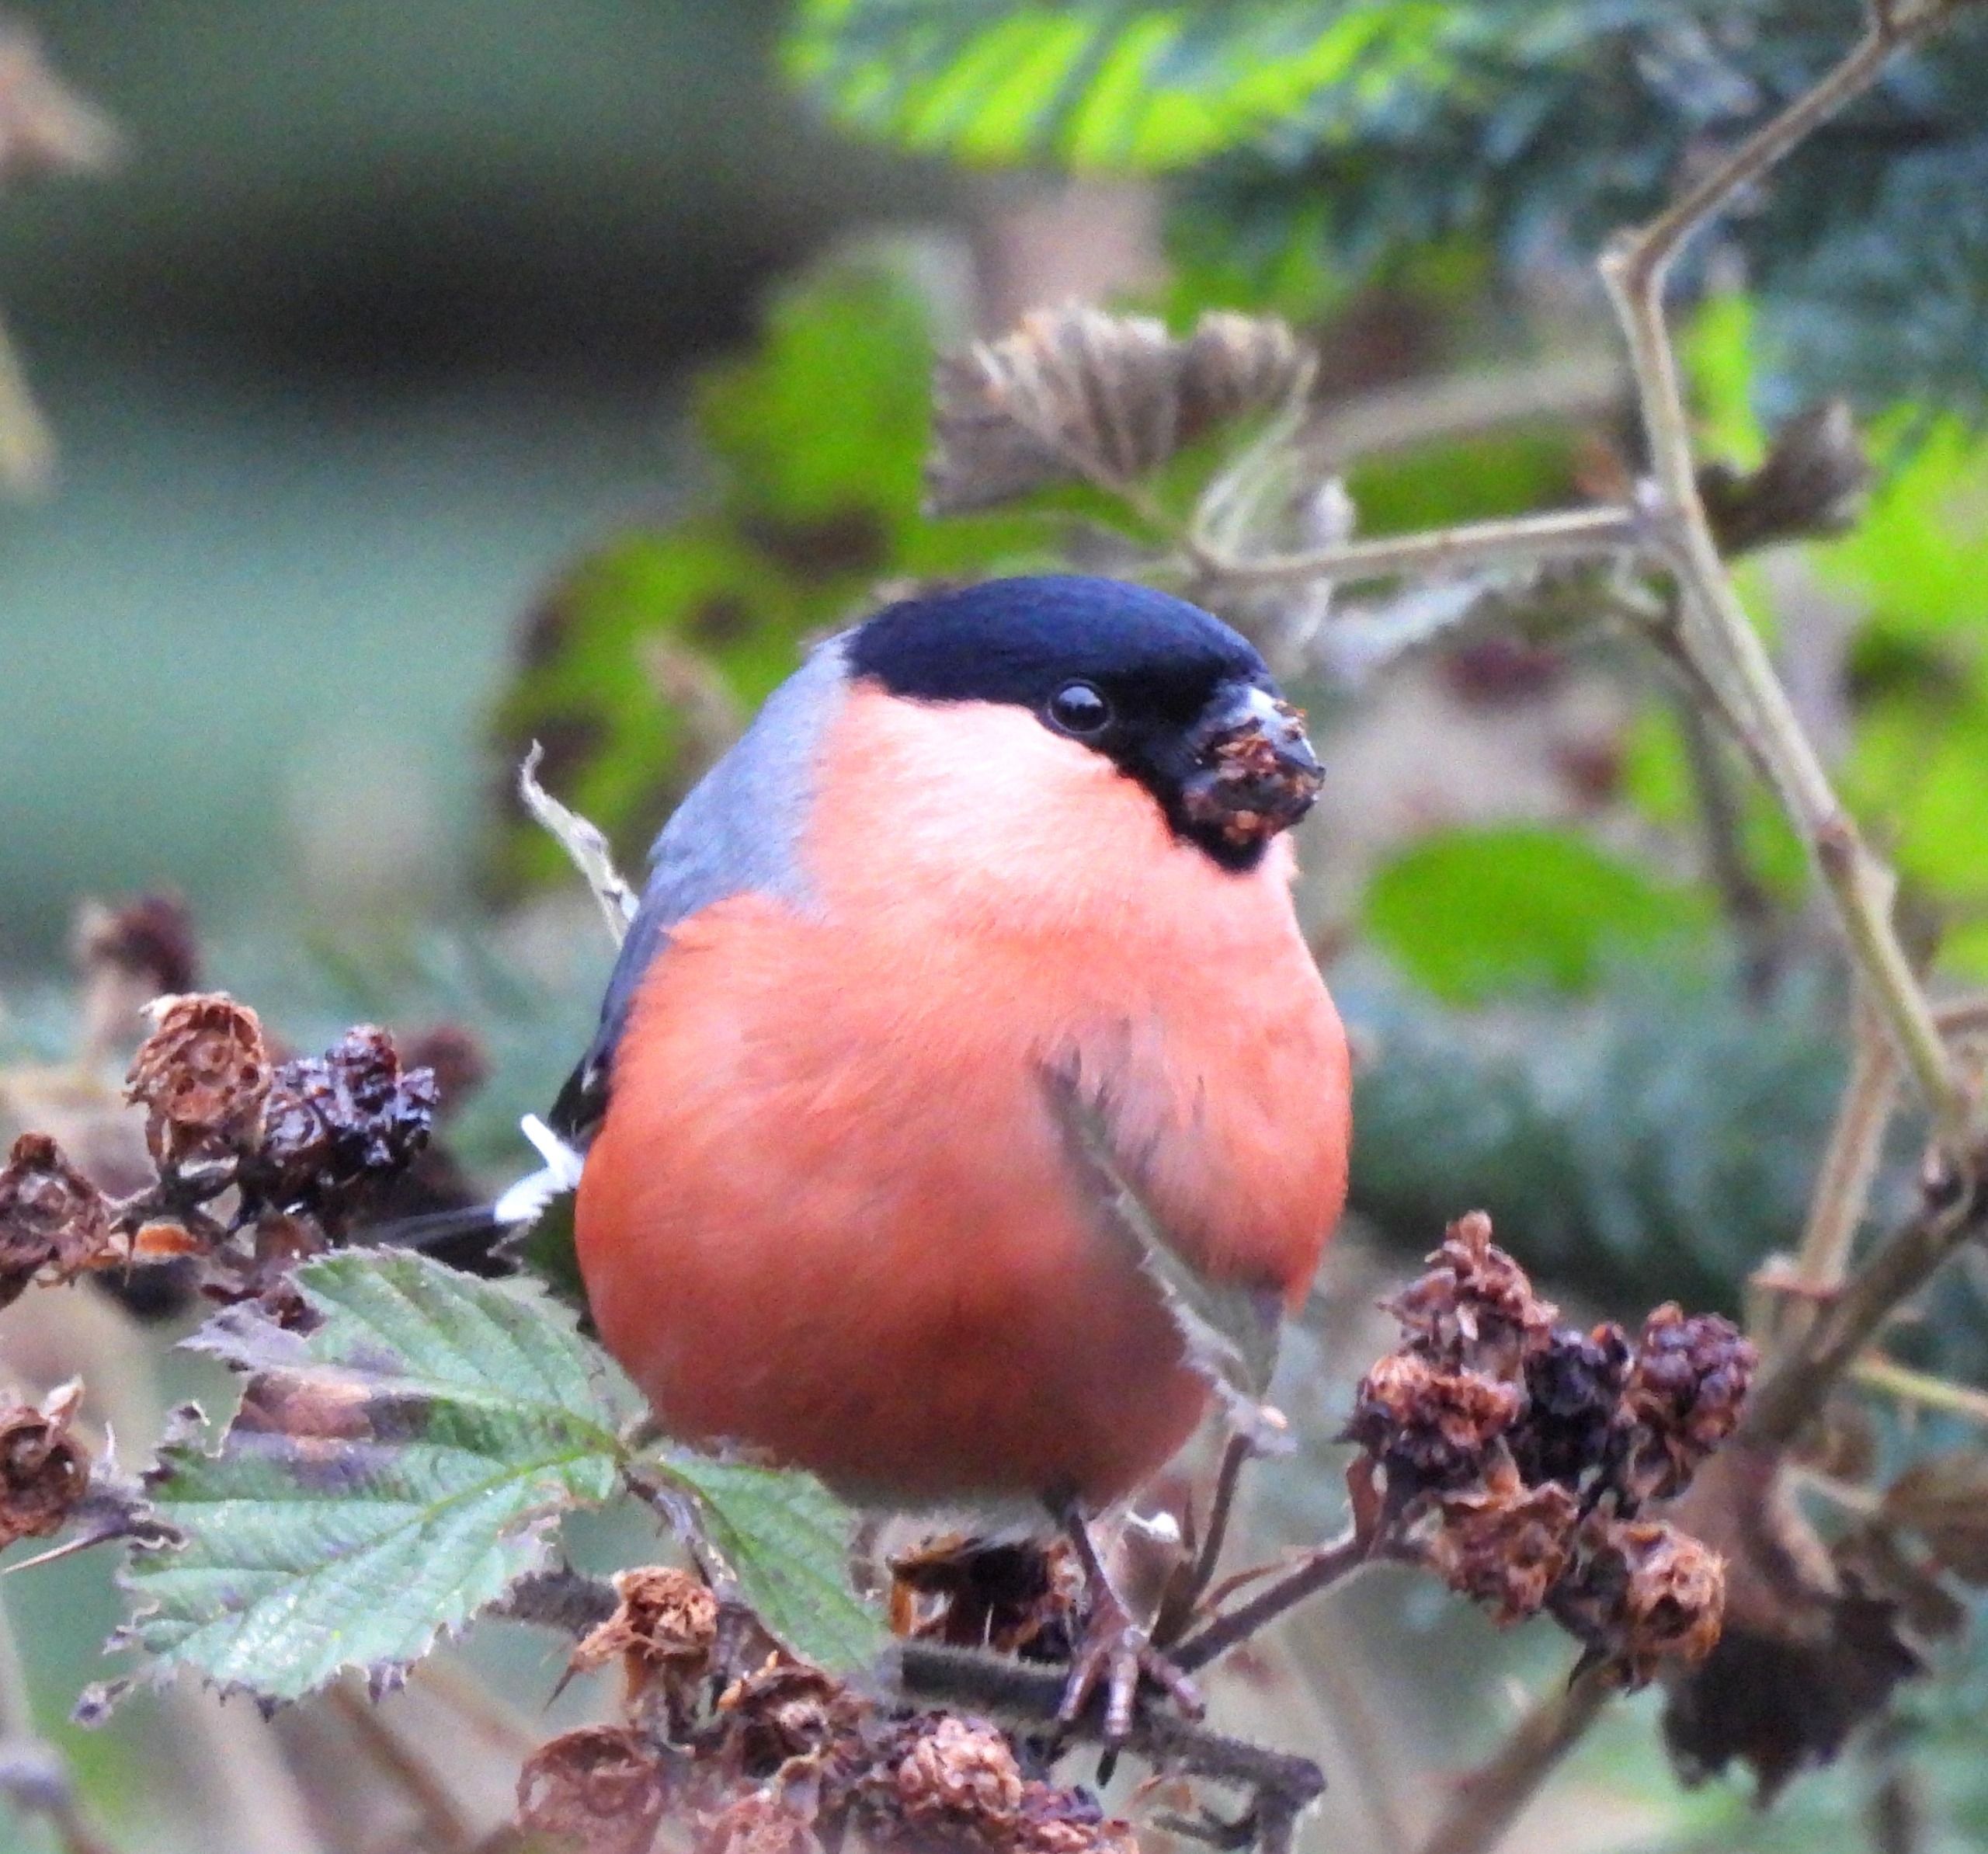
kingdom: Animalia
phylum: Chordata
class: Aves
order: Passeriformes
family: Fringillidae
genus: Pyrrhula
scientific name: Pyrrhula pyrrhula
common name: Dompap
